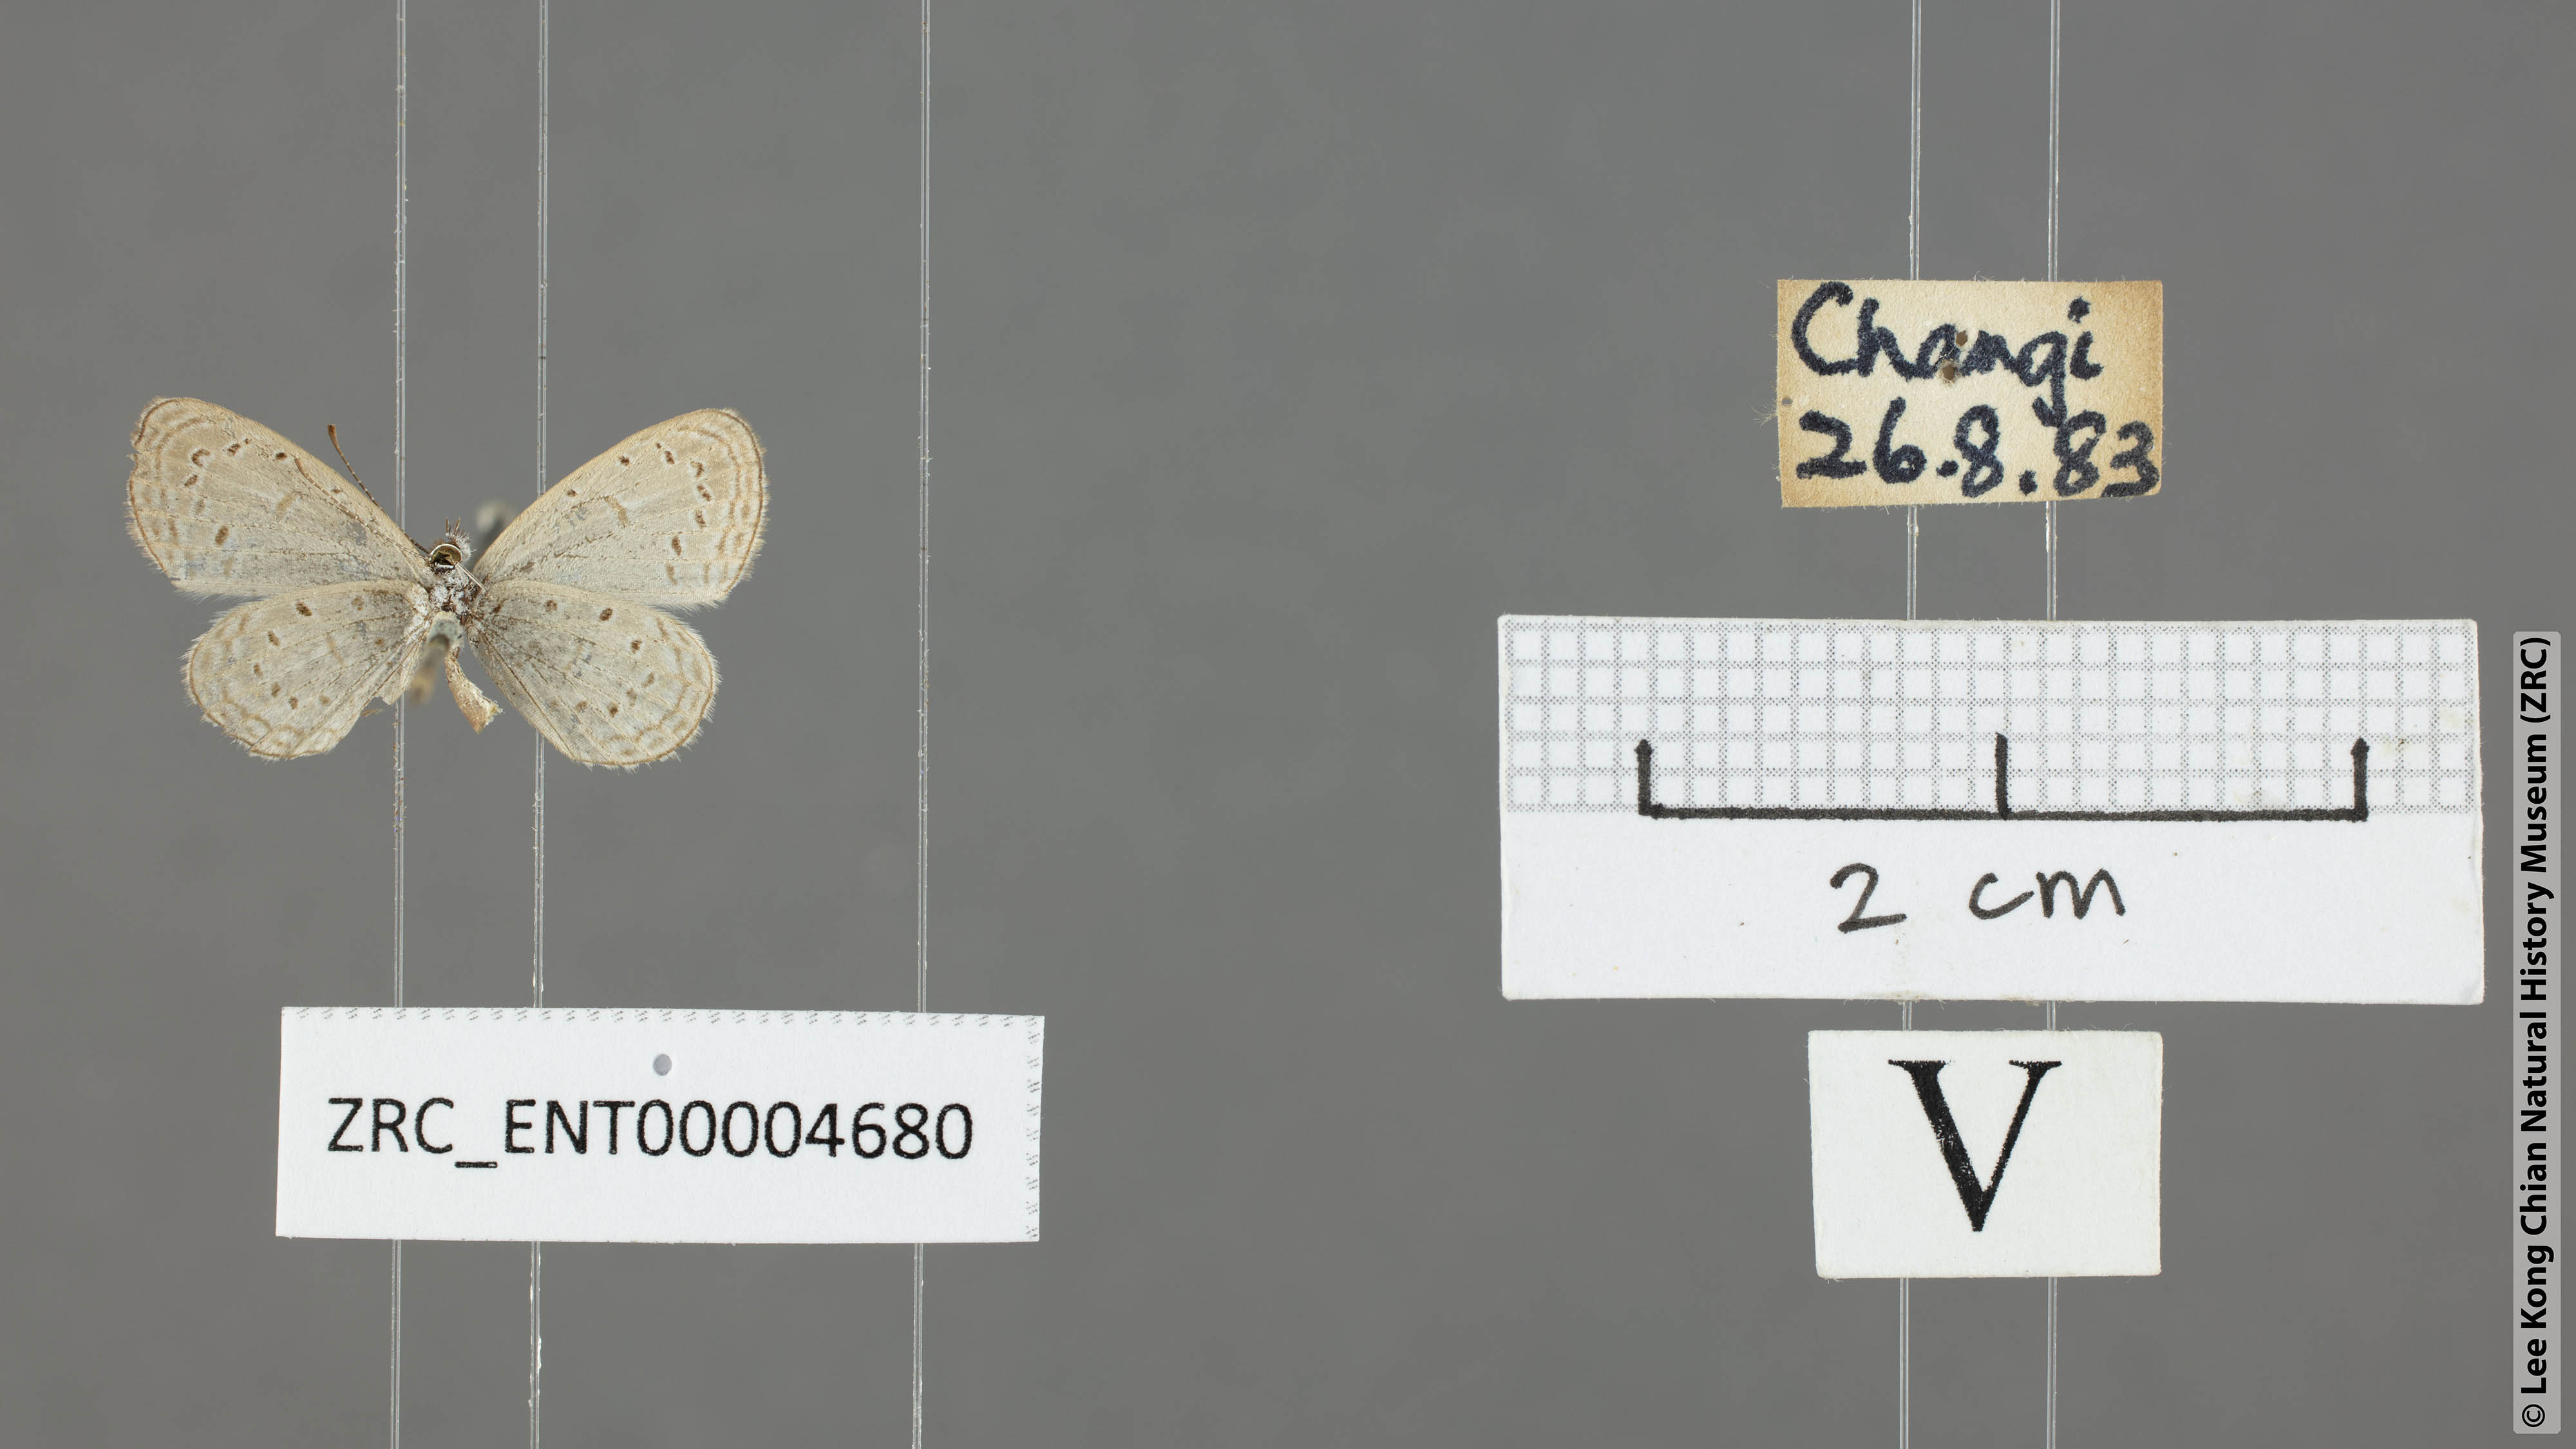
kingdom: Animalia
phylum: Arthropoda
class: Insecta
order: Lepidoptera
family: Lycaenidae
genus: Zizula
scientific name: Zizula hylax
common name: Gaika blue
